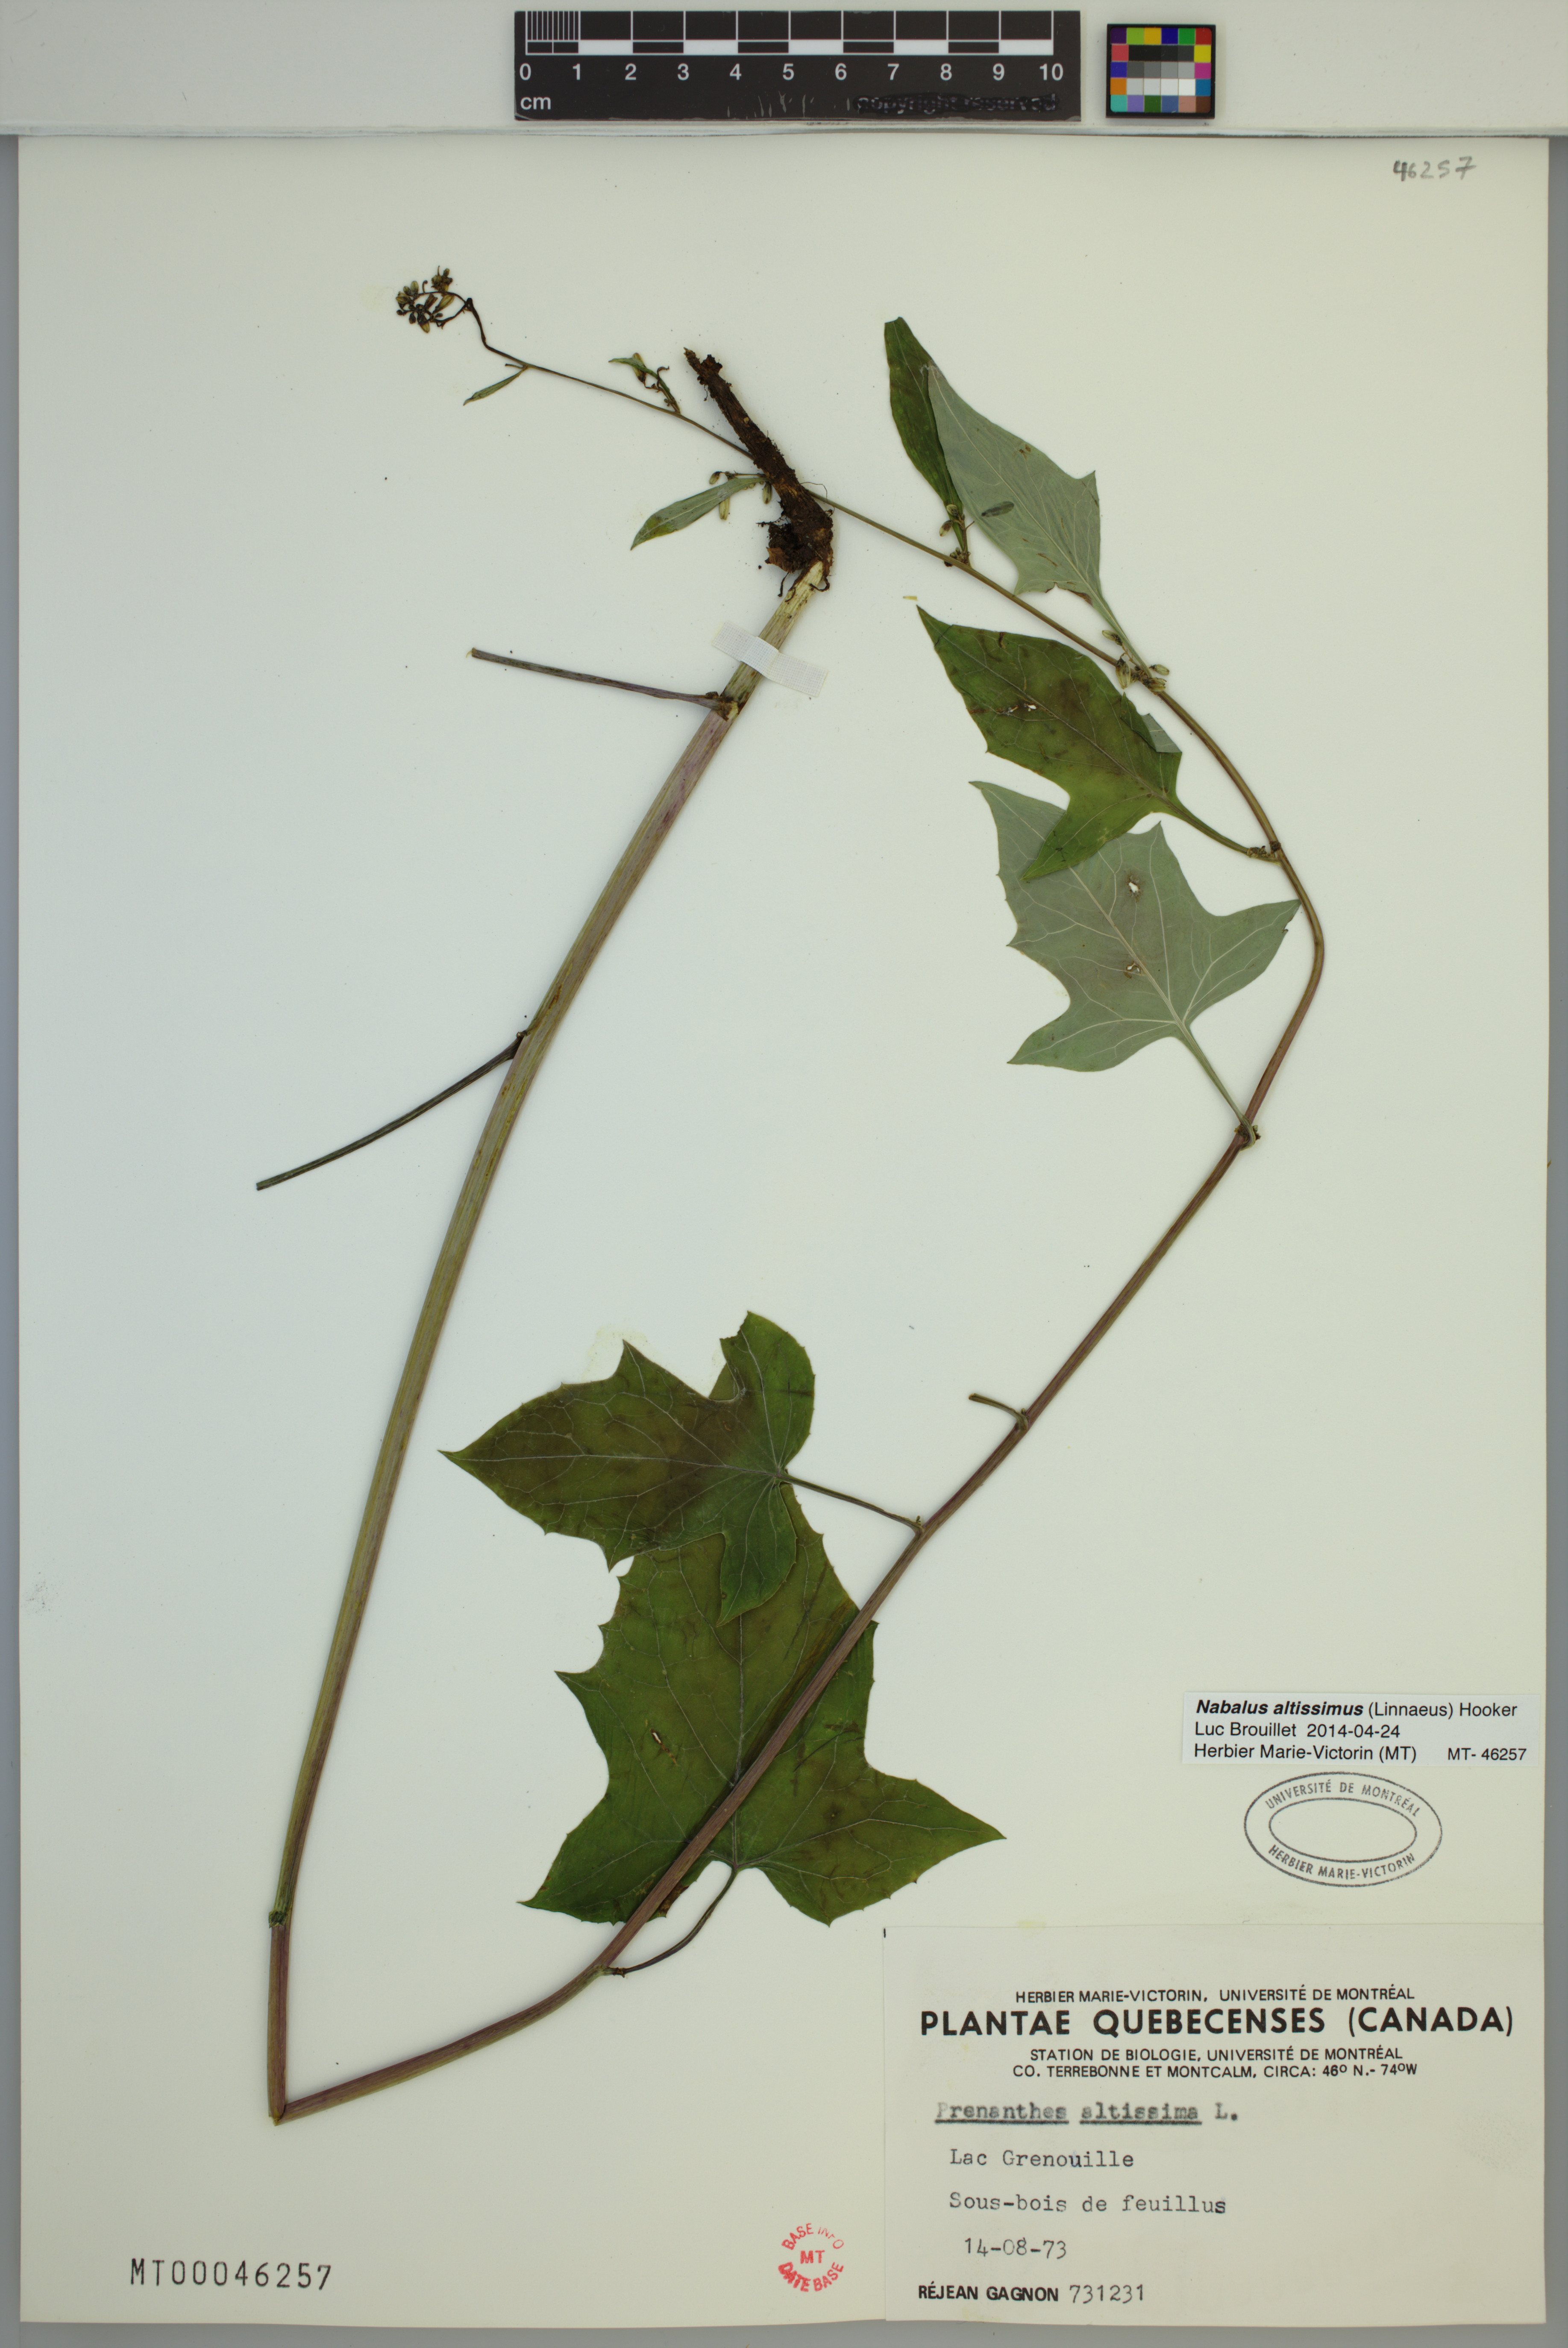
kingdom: Plantae
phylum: Tracheophyta
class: Magnoliopsida
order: Asterales
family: Asteraceae
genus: Nabalus
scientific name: Nabalus altissima
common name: Tall rattlesnakeroot
